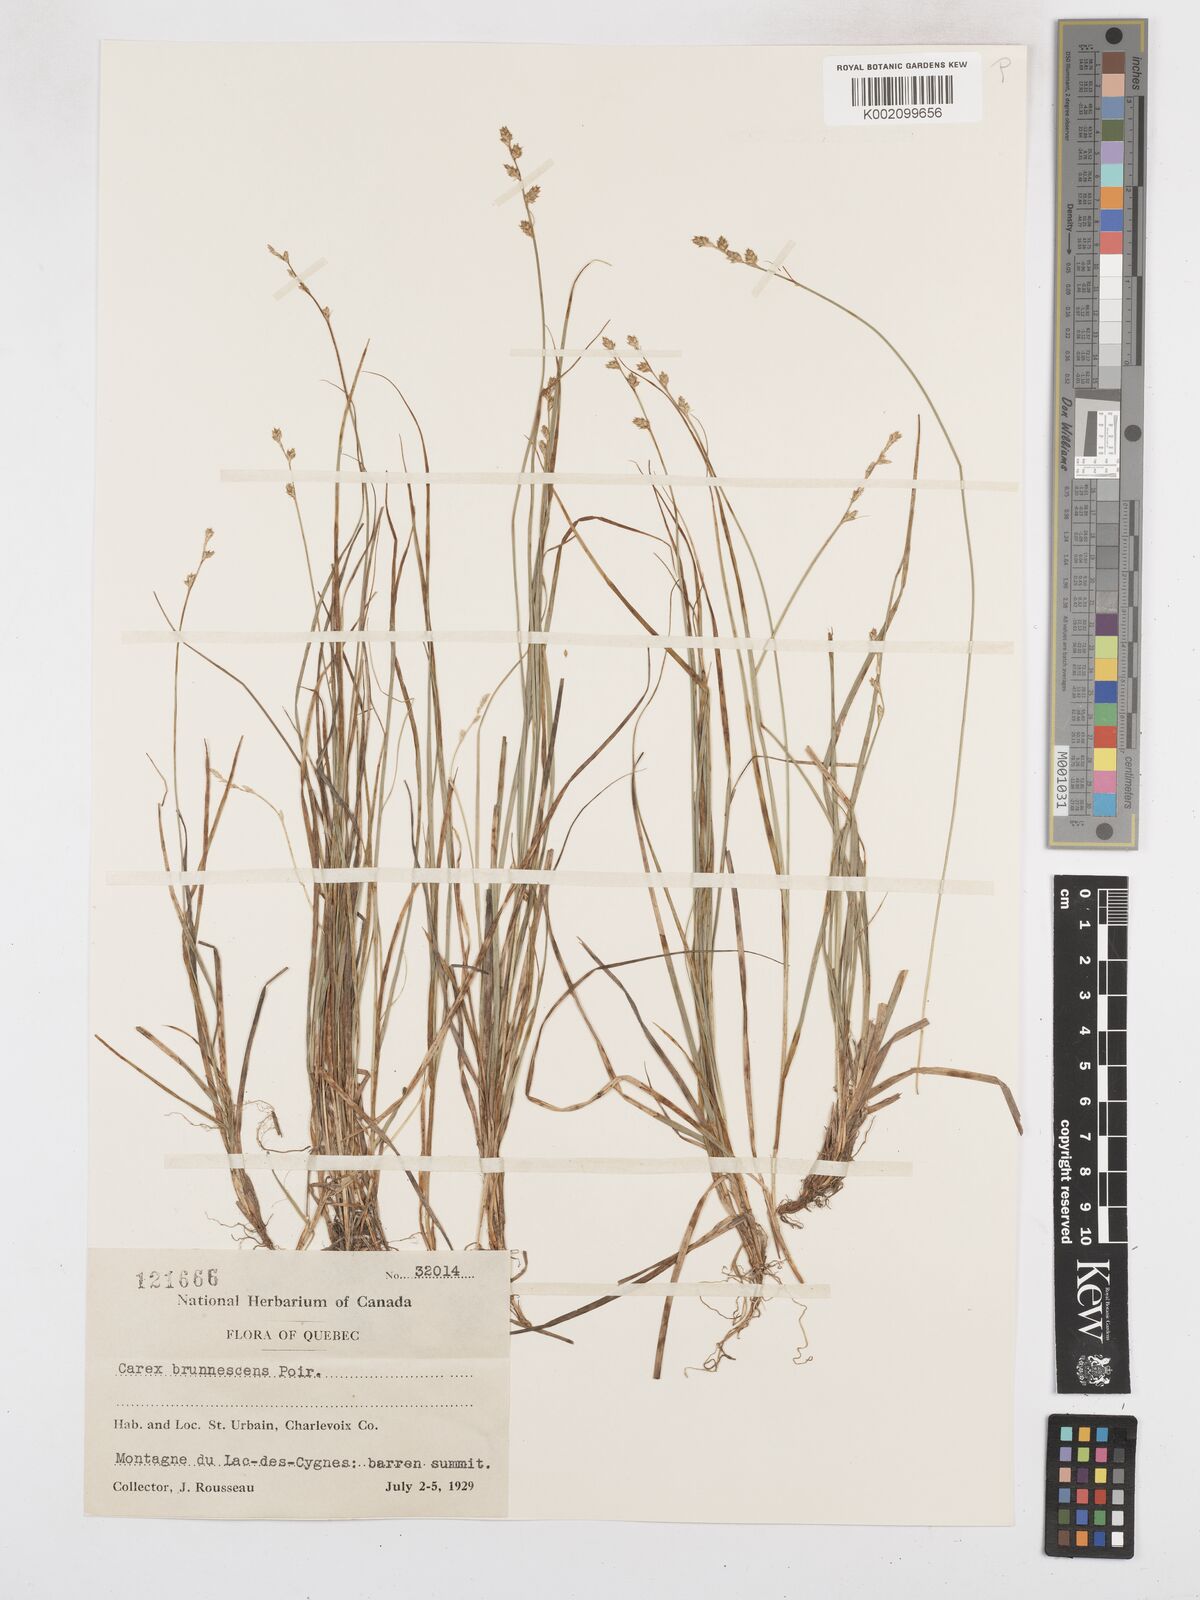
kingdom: Plantae
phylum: Tracheophyta
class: Liliopsida
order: Poales
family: Cyperaceae
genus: Carex
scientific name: Carex brunnescens
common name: Brown sedge
